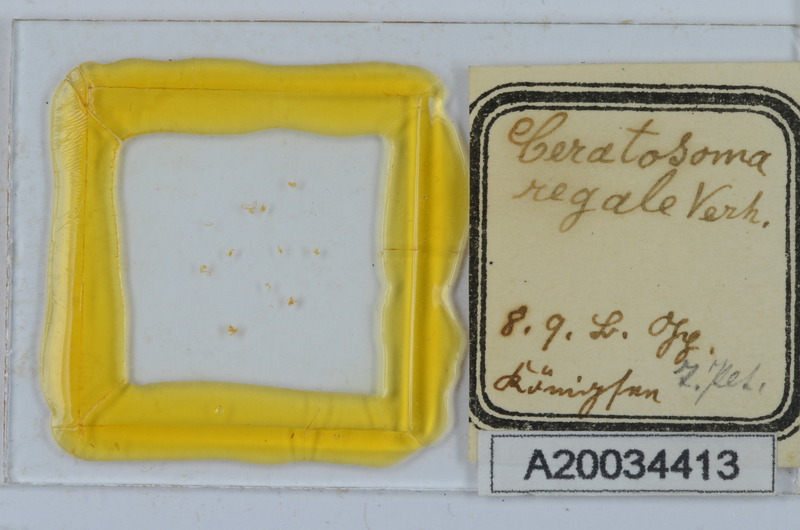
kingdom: Animalia
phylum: Arthropoda
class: Diplopoda
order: Chordeumatida
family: Craspedosomatidae
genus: Ochogona
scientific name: Ochogona regalis
